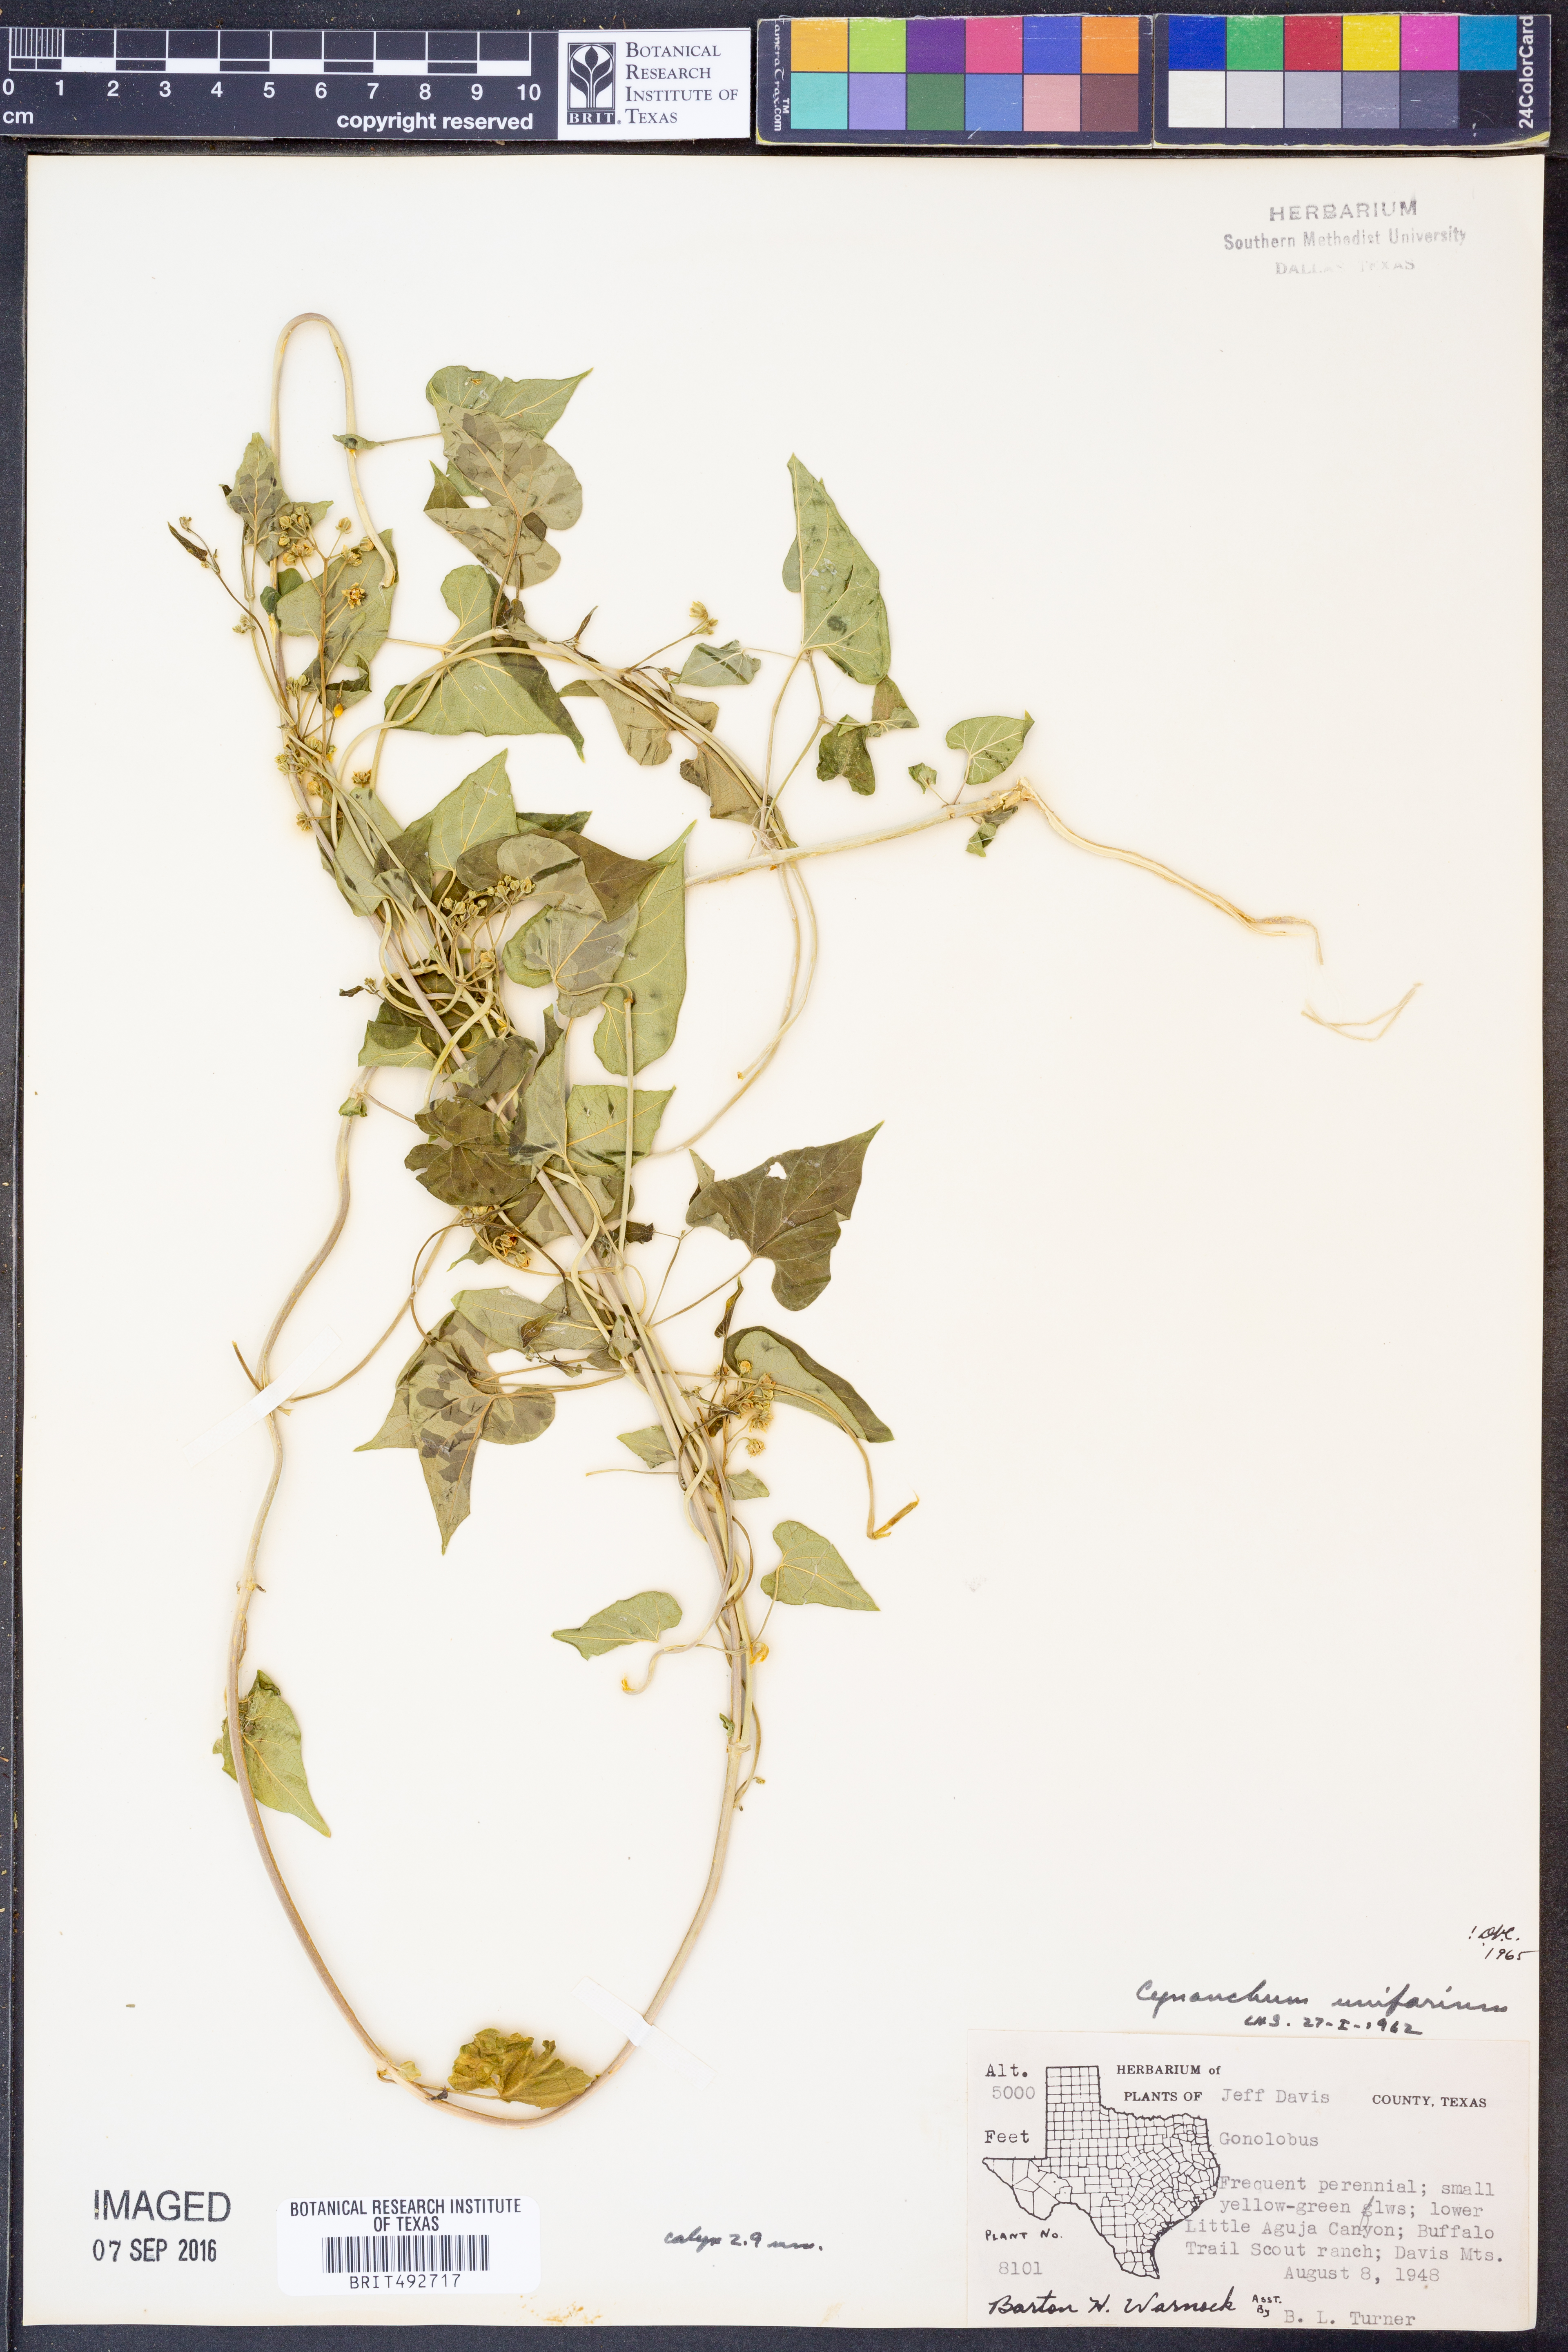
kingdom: Plantae
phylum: Tracheophyta
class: Magnoliopsida
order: Gentianales
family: Apocynaceae
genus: Cynanchum
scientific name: Cynanchum racemosum
